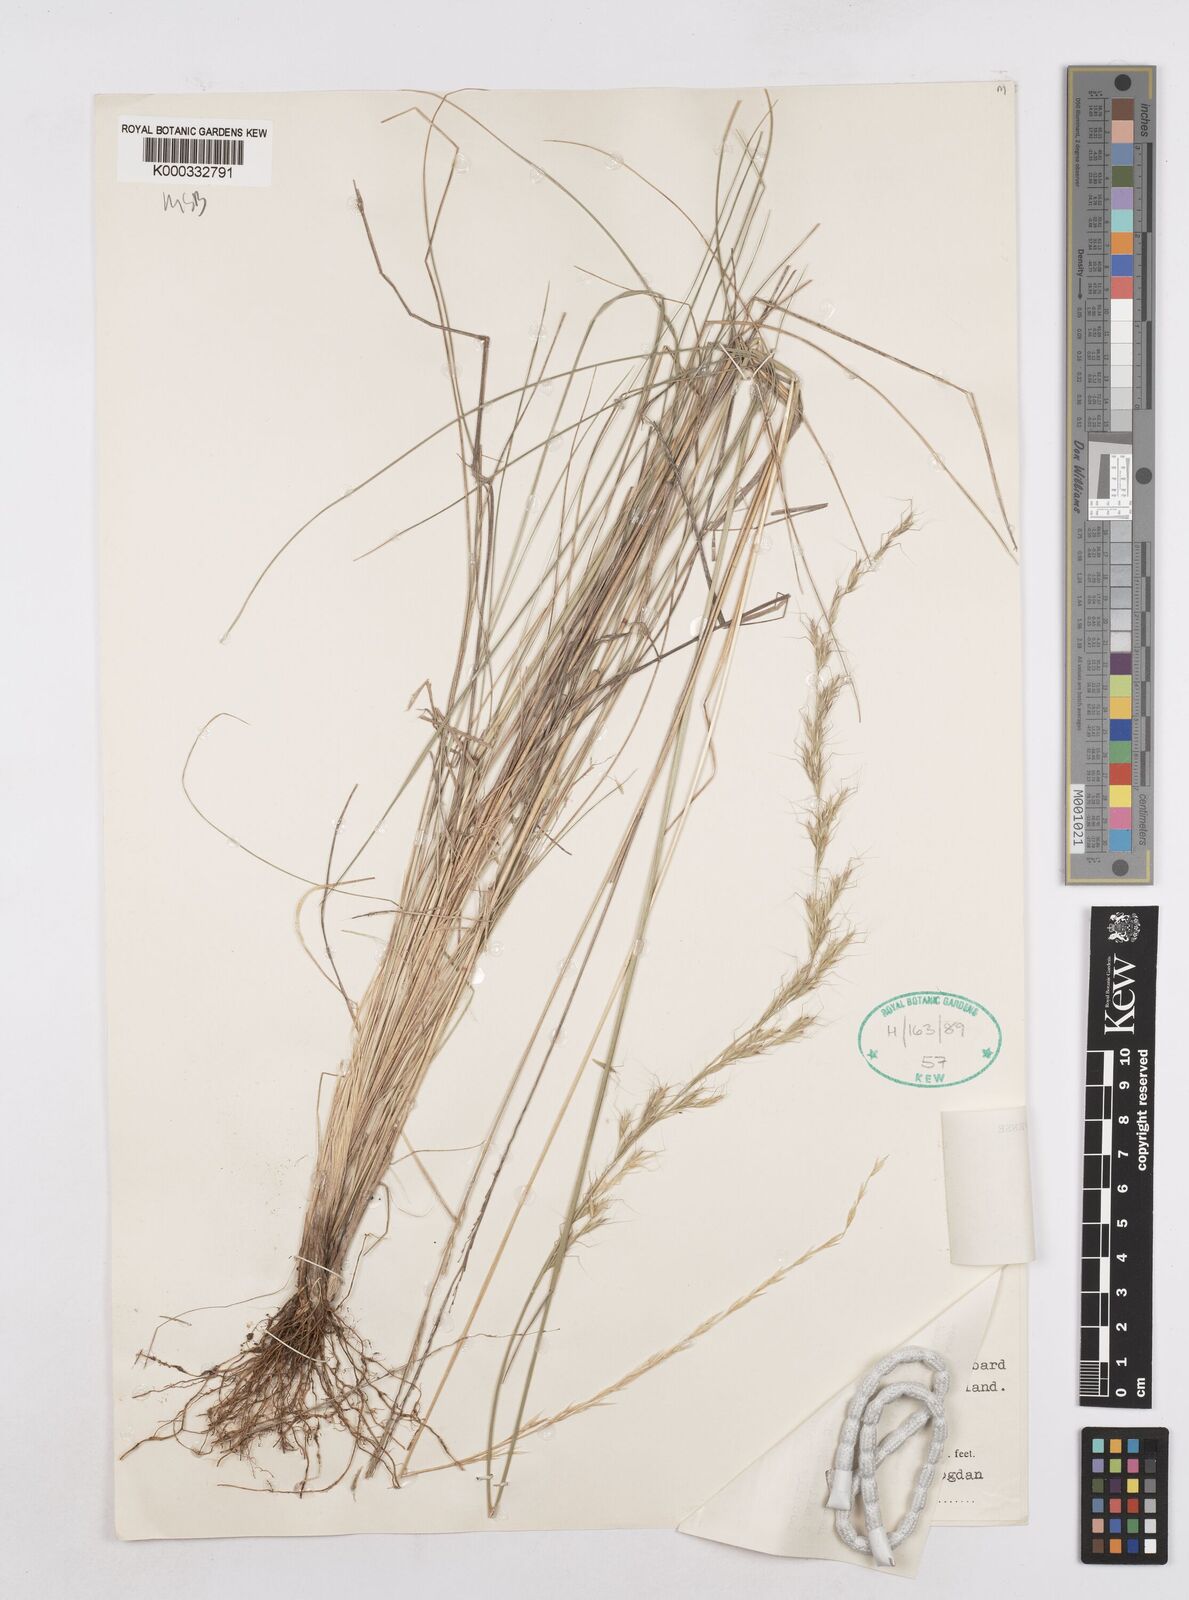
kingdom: Plantae
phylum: Tracheophyta
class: Liliopsida
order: Poales
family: Poaceae
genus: Trisetopsis
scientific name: Trisetopsis angusta
